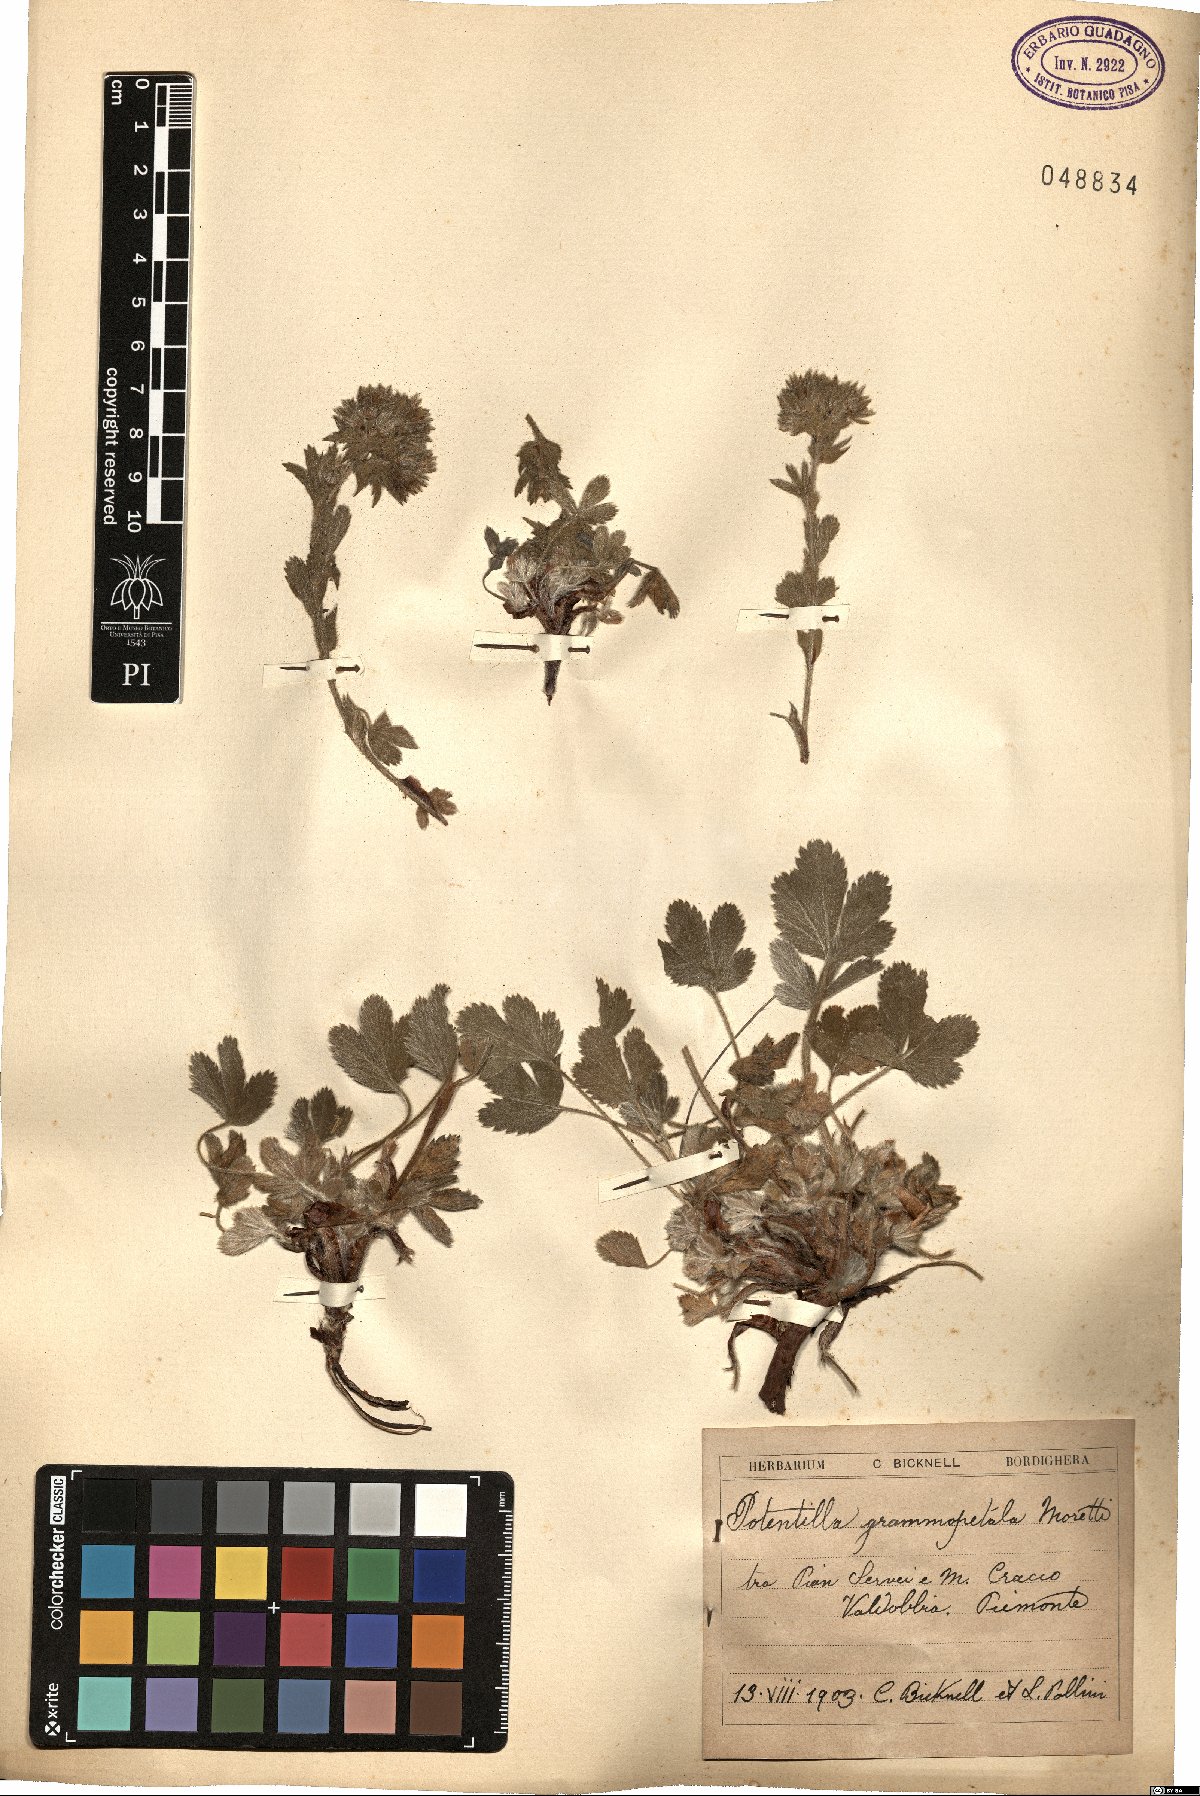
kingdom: Plantae
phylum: Tracheophyta
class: Magnoliopsida
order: Rosales
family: Rosaceae
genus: Potentilla
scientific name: Potentilla grammopetala
